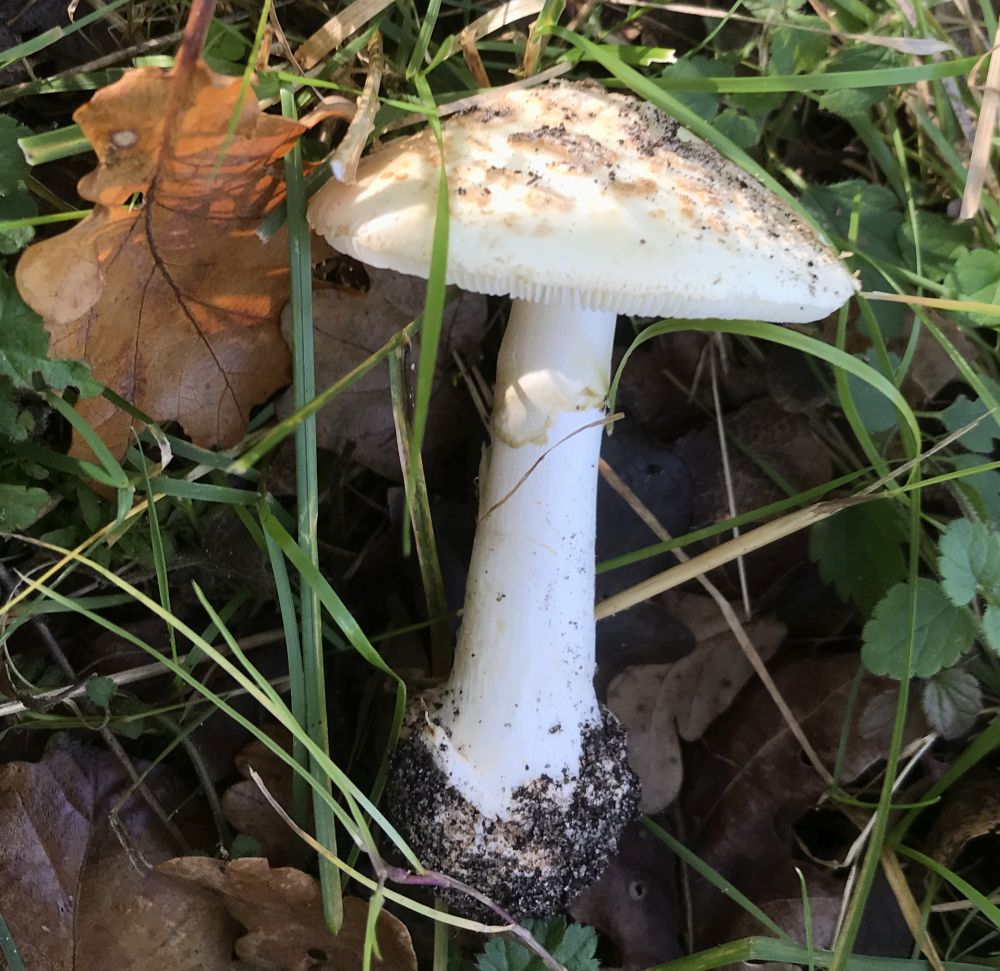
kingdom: Fungi
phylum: Basidiomycota
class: Agaricomycetes
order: Agaricales
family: Amanitaceae
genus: Amanita
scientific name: Amanita citrina
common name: kugleknoldet fluesvamp
